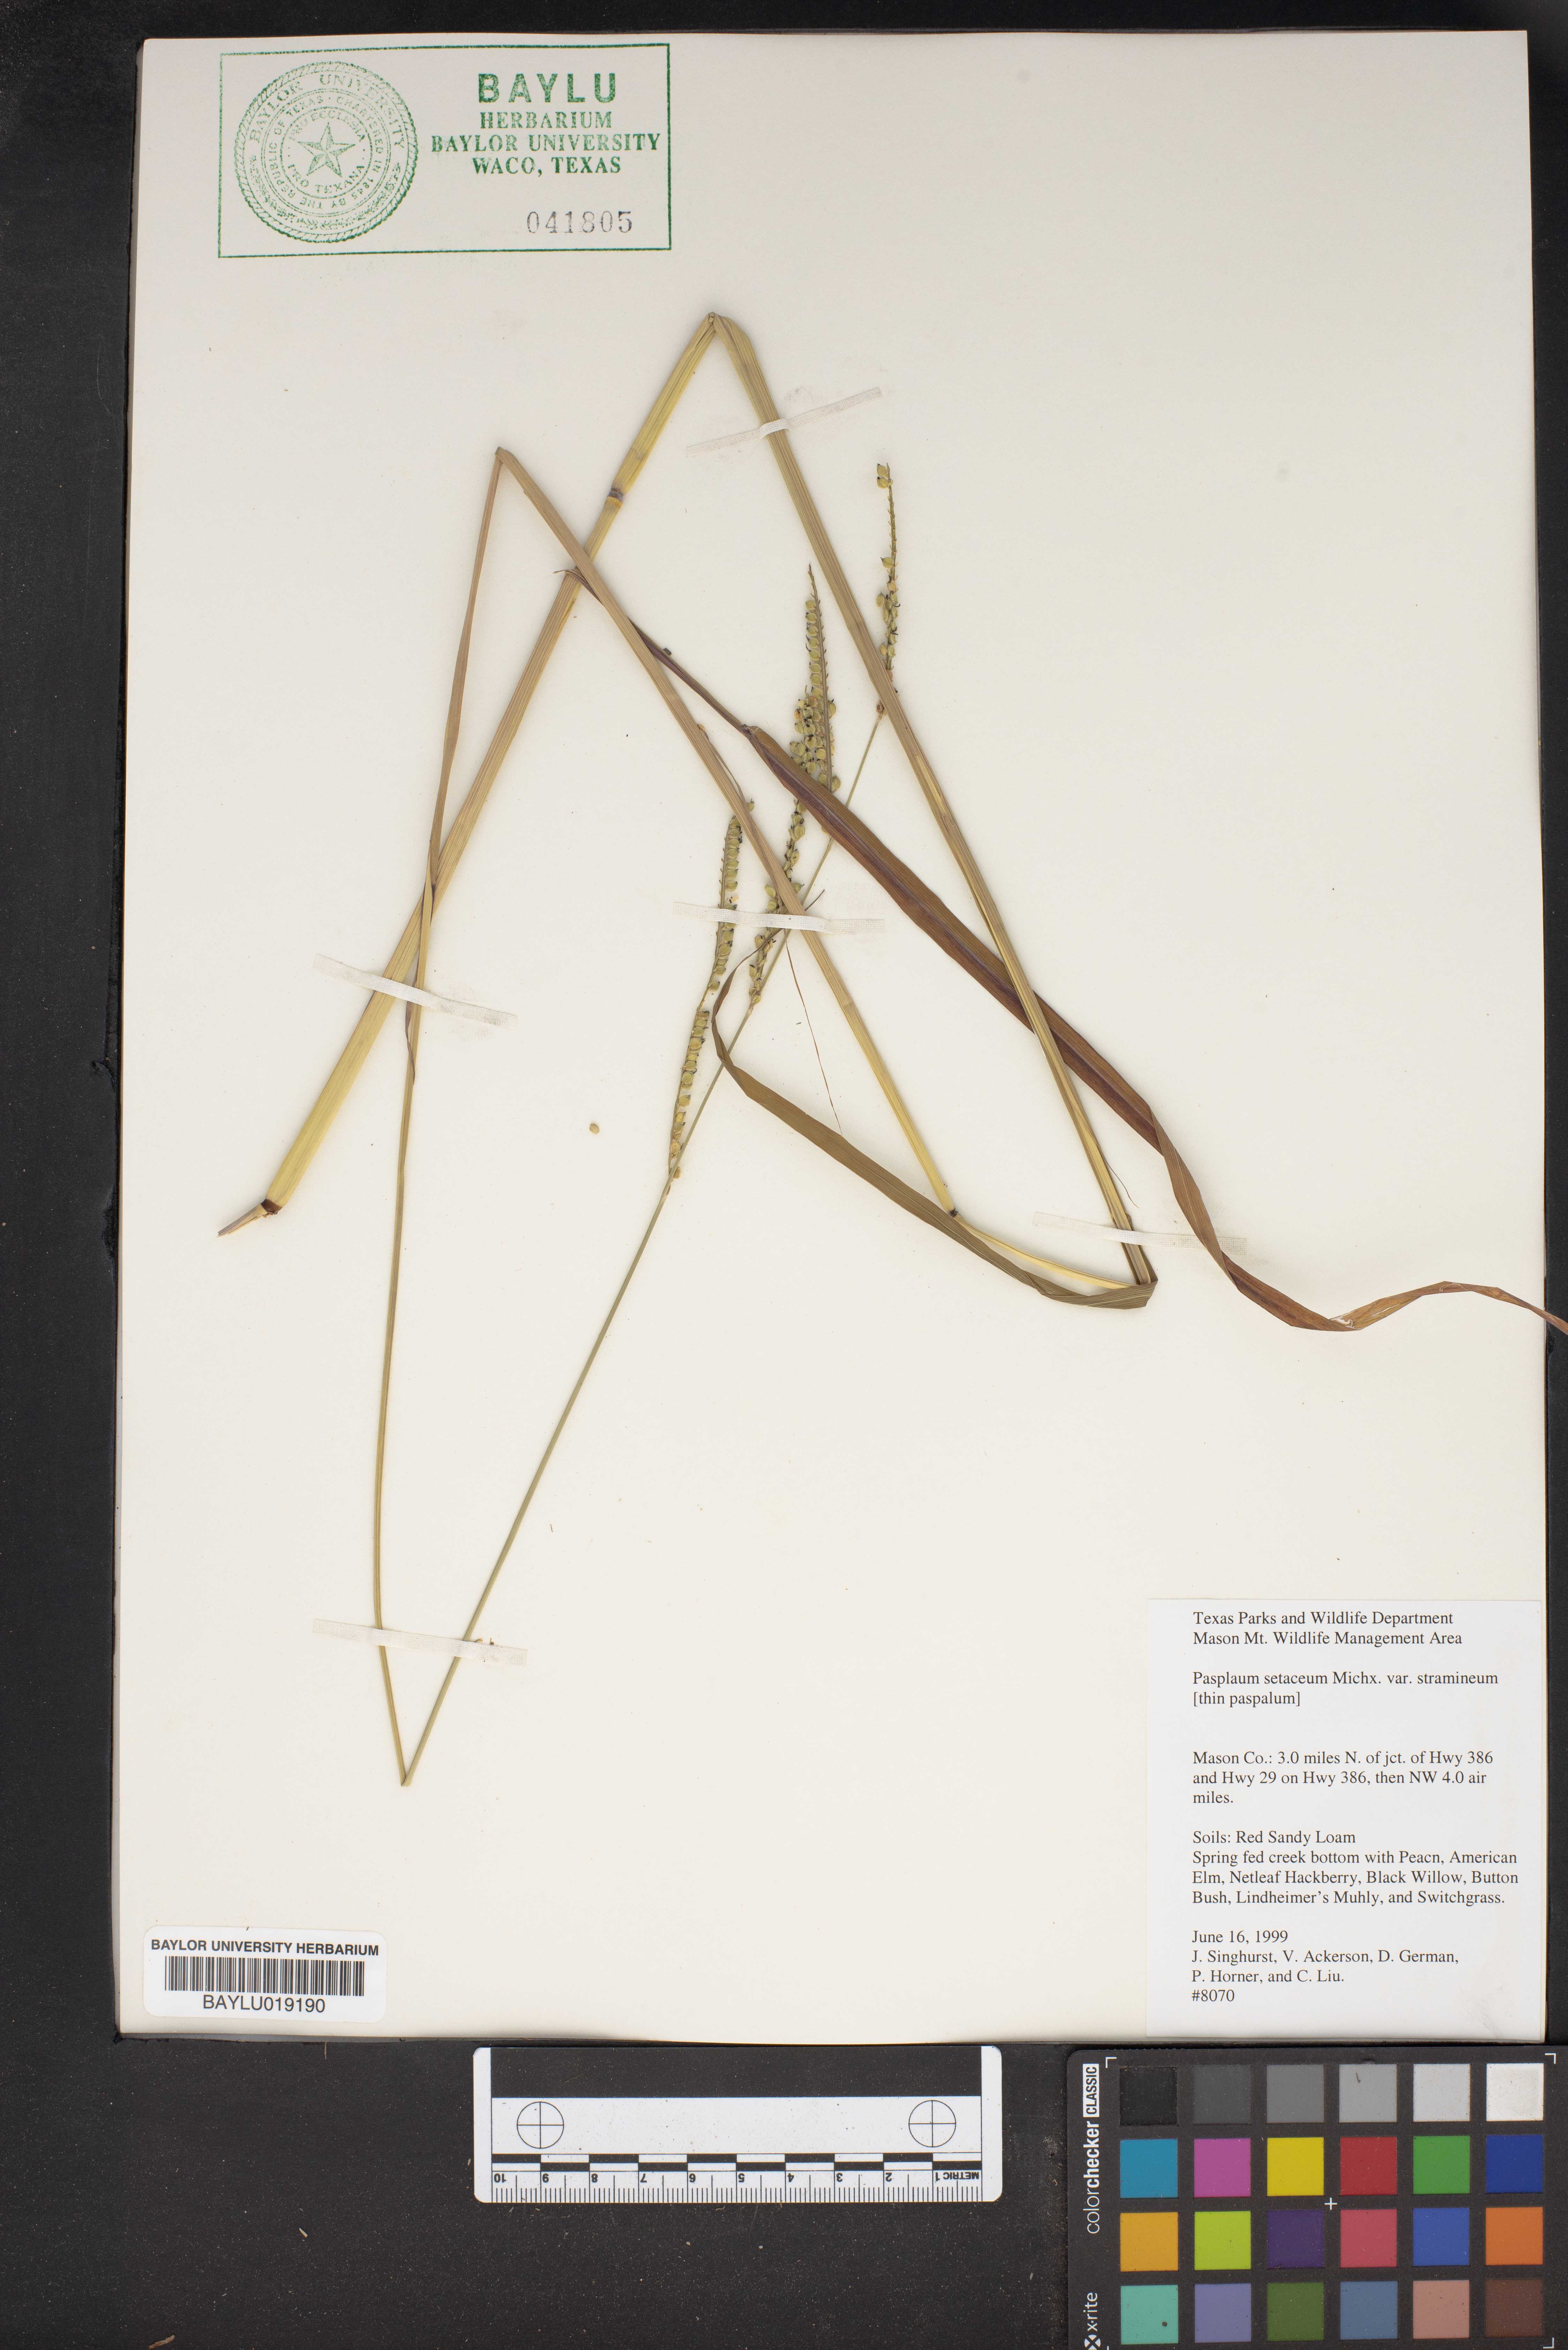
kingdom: Plantae
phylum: Tracheophyta
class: Liliopsida
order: Poales
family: Poaceae
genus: Paspalum
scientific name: Paspalum setaceum
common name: Slender paspalum
